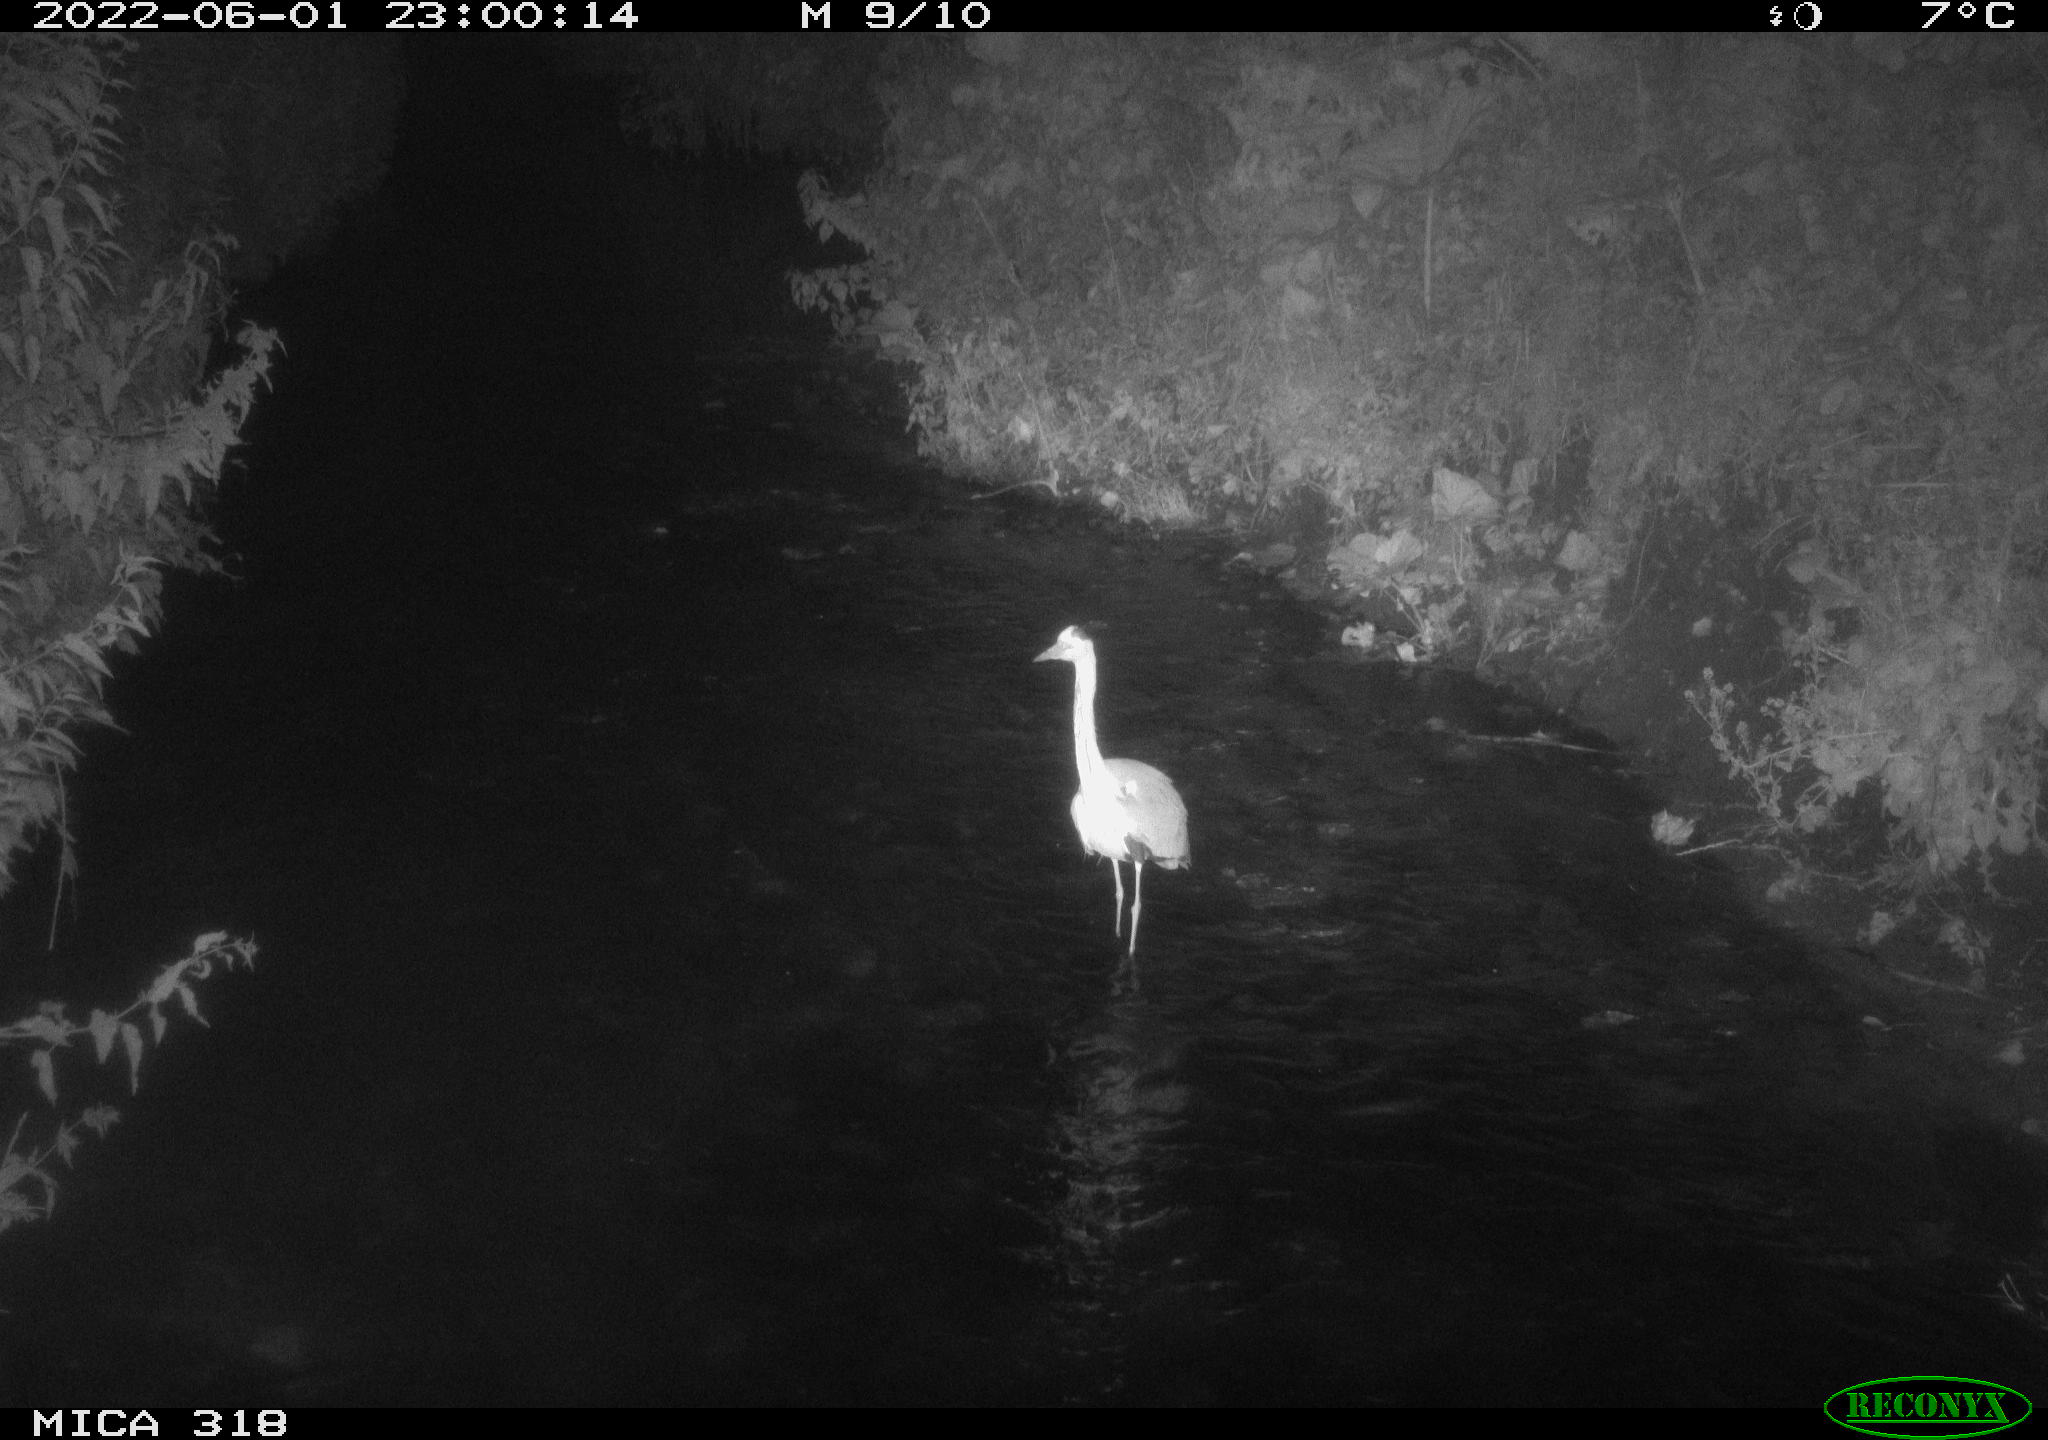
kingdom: Animalia
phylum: Chordata
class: Aves
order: Pelecaniformes
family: Ardeidae
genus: Ardea
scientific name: Ardea cinerea
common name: Grey heron
